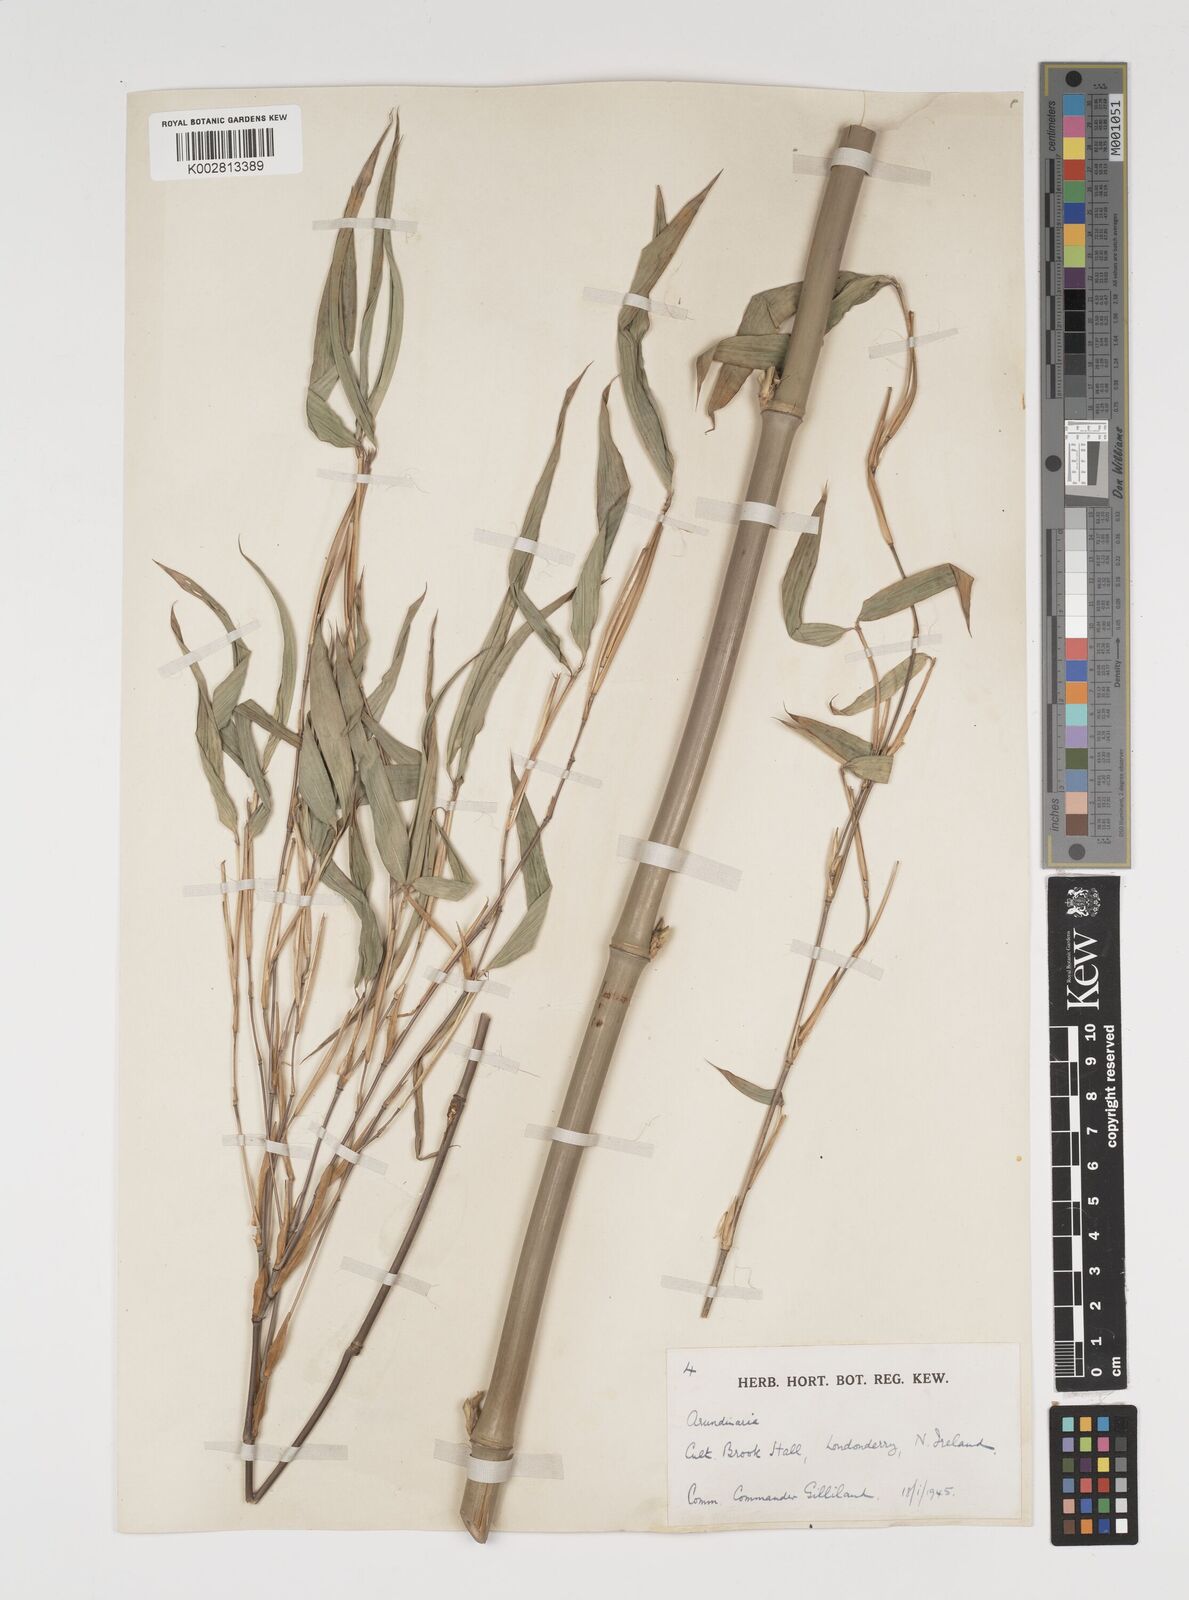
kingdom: Plantae
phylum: Tracheophyta
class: Liliopsida
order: Poales
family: Poaceae
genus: Thamnocalamus
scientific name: Thamnocalamus spathiflorus
